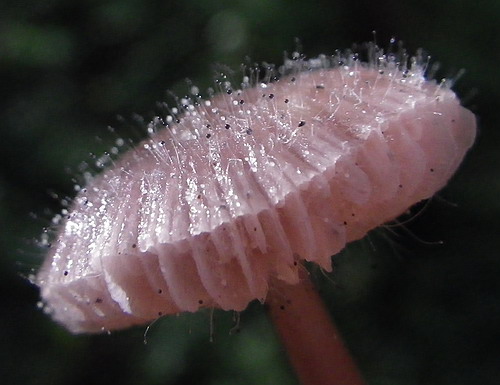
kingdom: Fungi
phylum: Mucoromycota
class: Mucoromycetes
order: Mucorales
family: Phycomycetaceae
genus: Spinellus
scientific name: Spinellus fusiger
